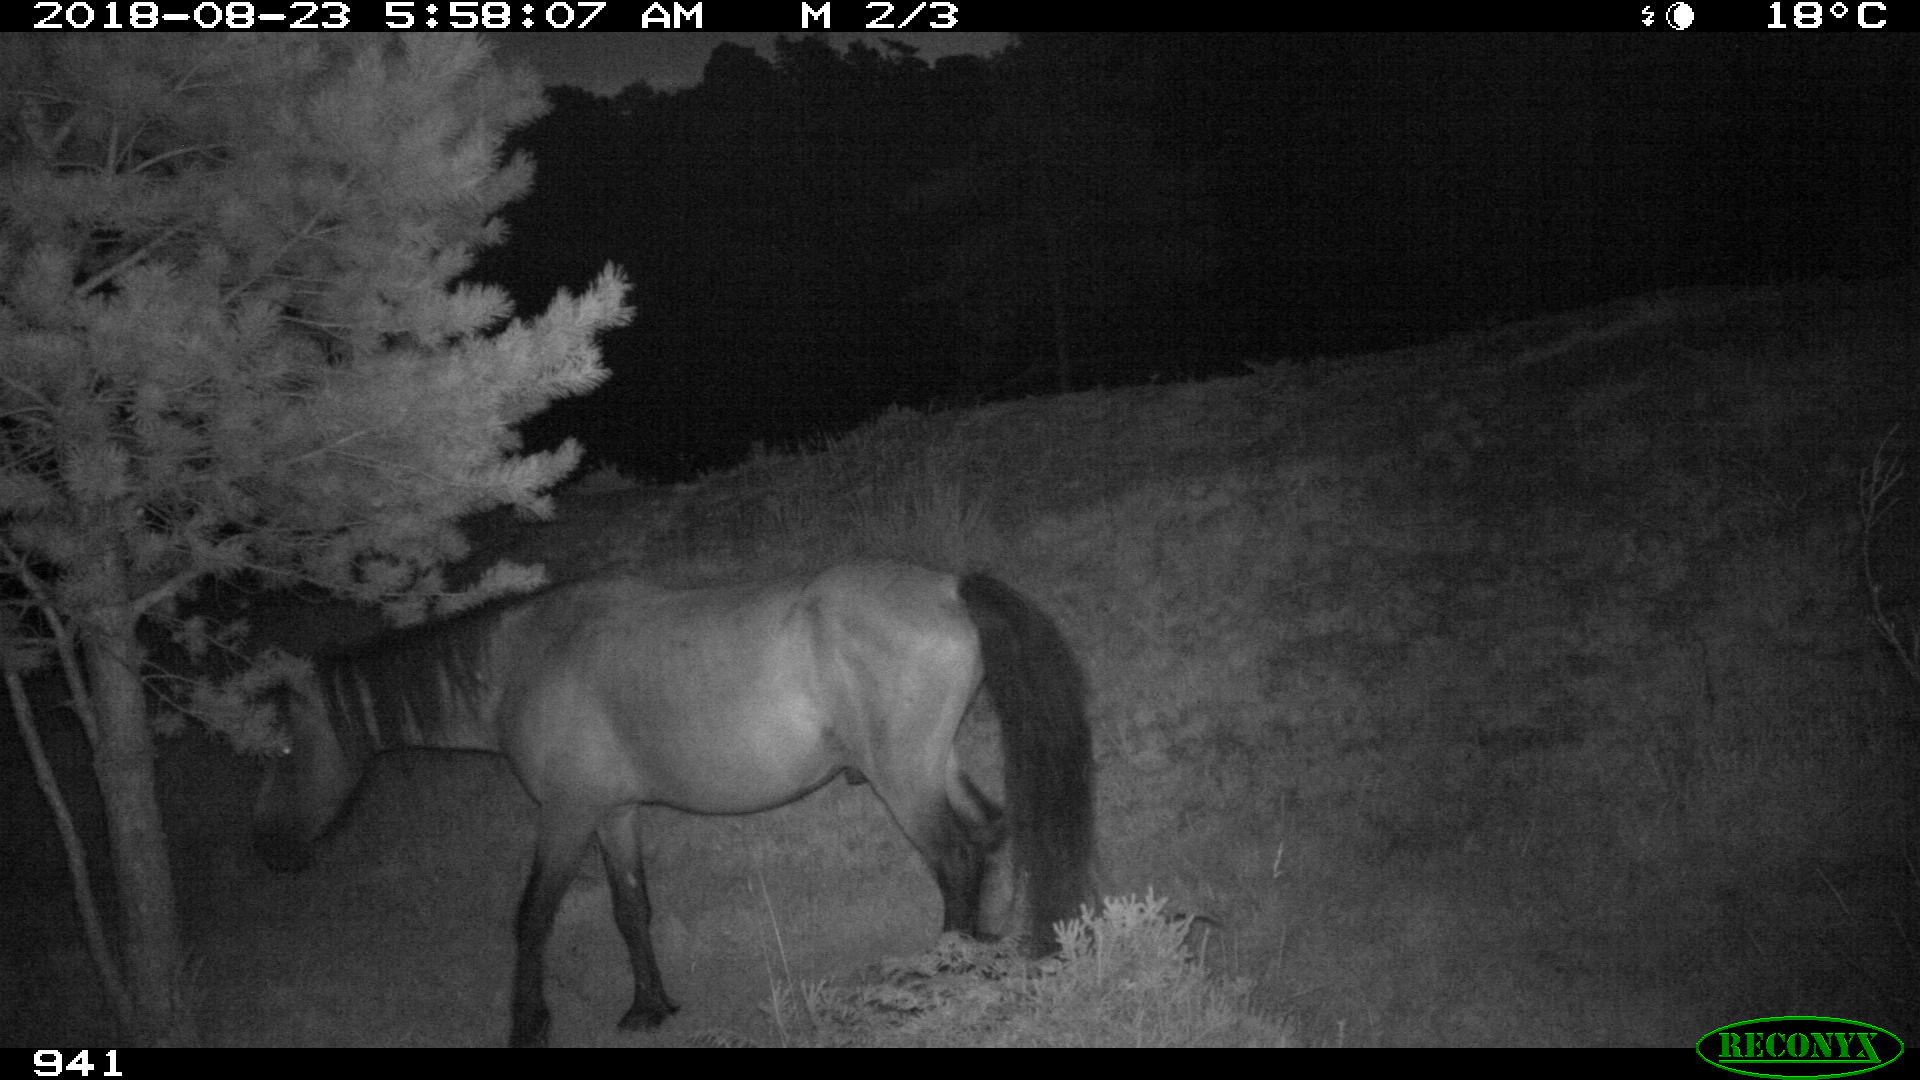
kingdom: Animalia
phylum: Chordata
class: Mammalia
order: Perissodactyla
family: Equidae
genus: Equus
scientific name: Equus caballus
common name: Horse
